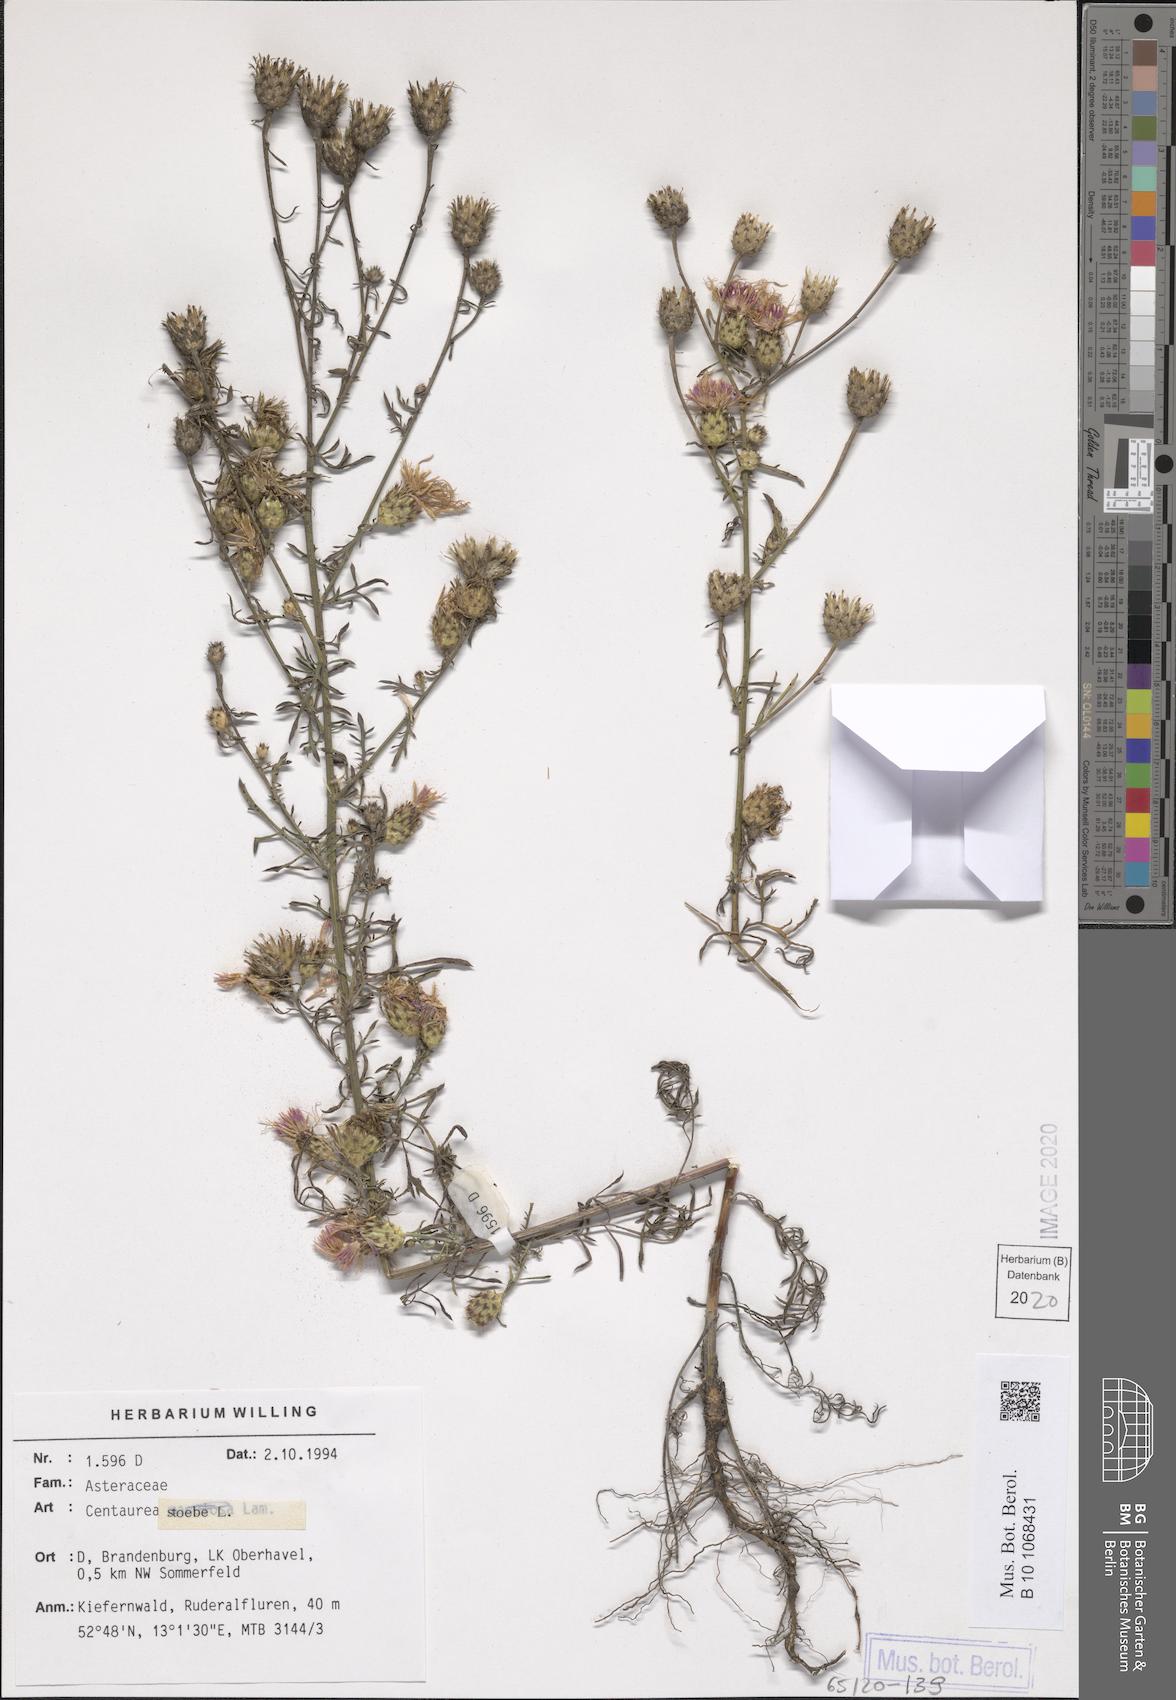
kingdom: Plantae
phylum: Tracheophyta
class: Magnoliopsida
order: Asterales
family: Asteraceae
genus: Centaurea
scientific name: Centaurea stoebe
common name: Spotted knapweed
